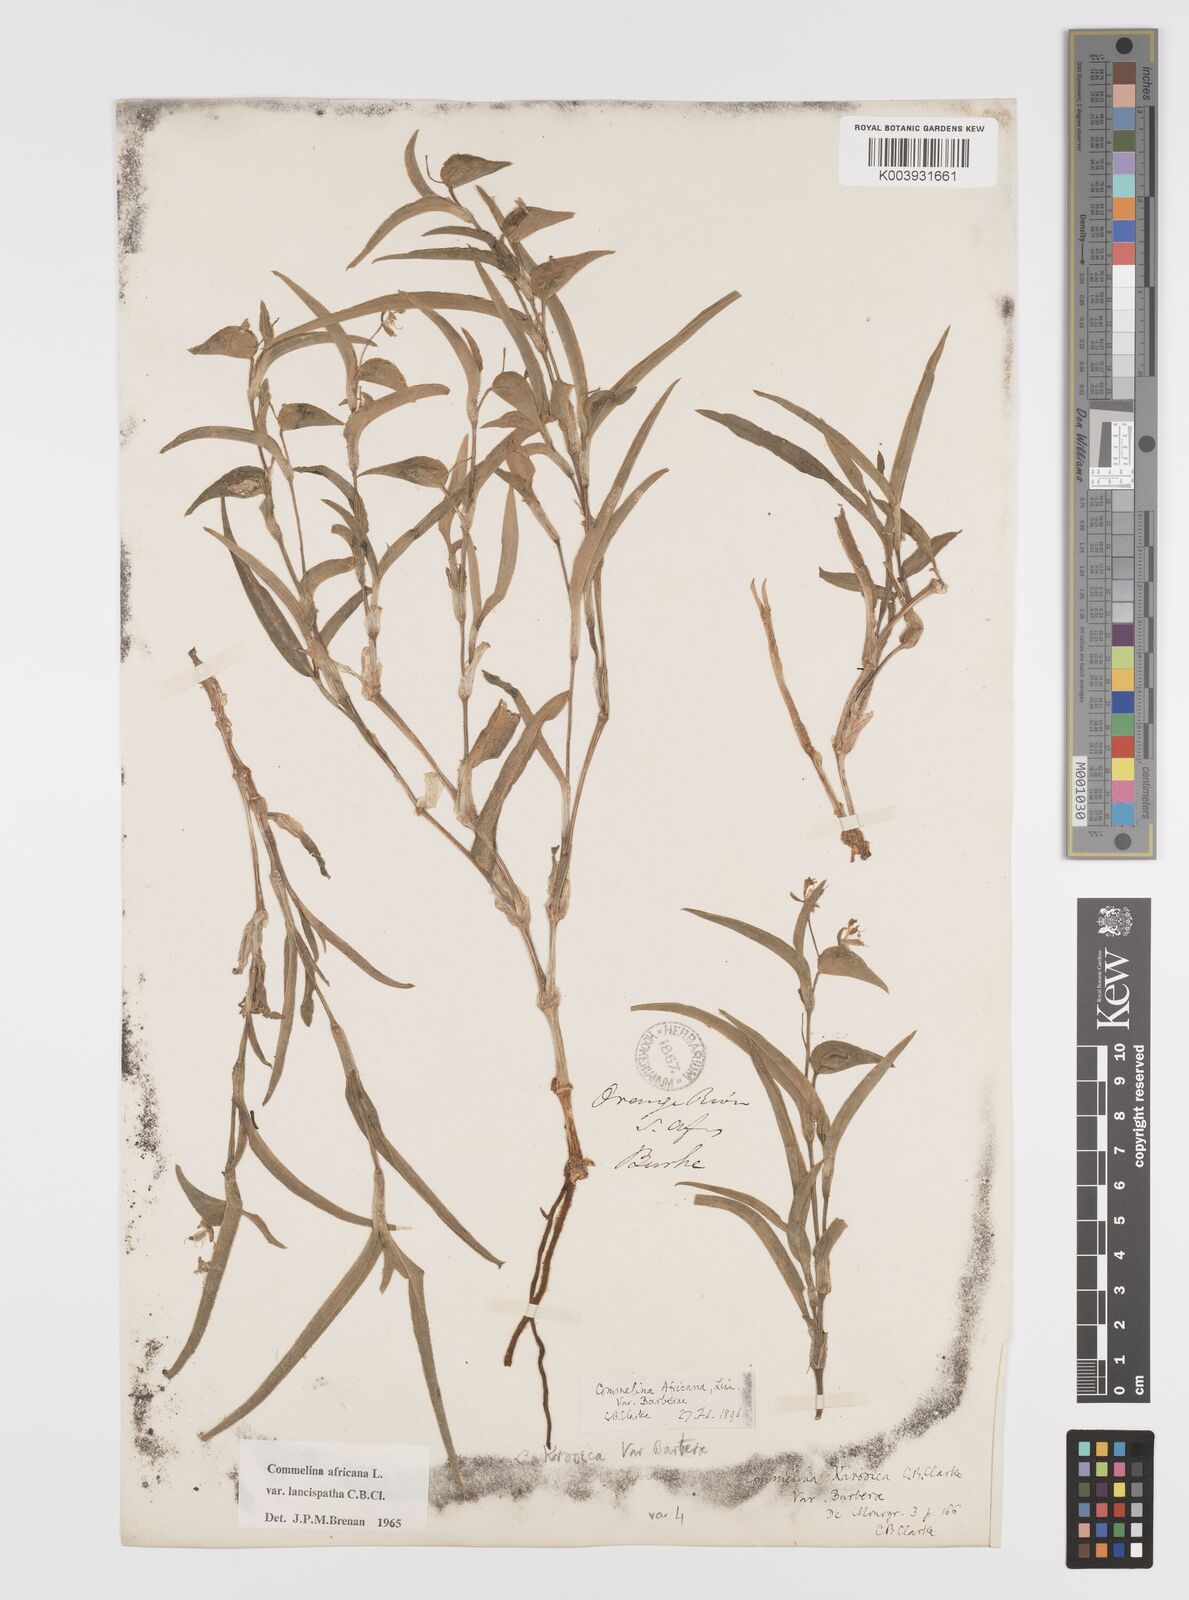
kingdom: Plantae
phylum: Tracheophyta
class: Liliopsida
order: Commelinales
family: Commelinaceae
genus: Commelina
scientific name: Commelina africana
